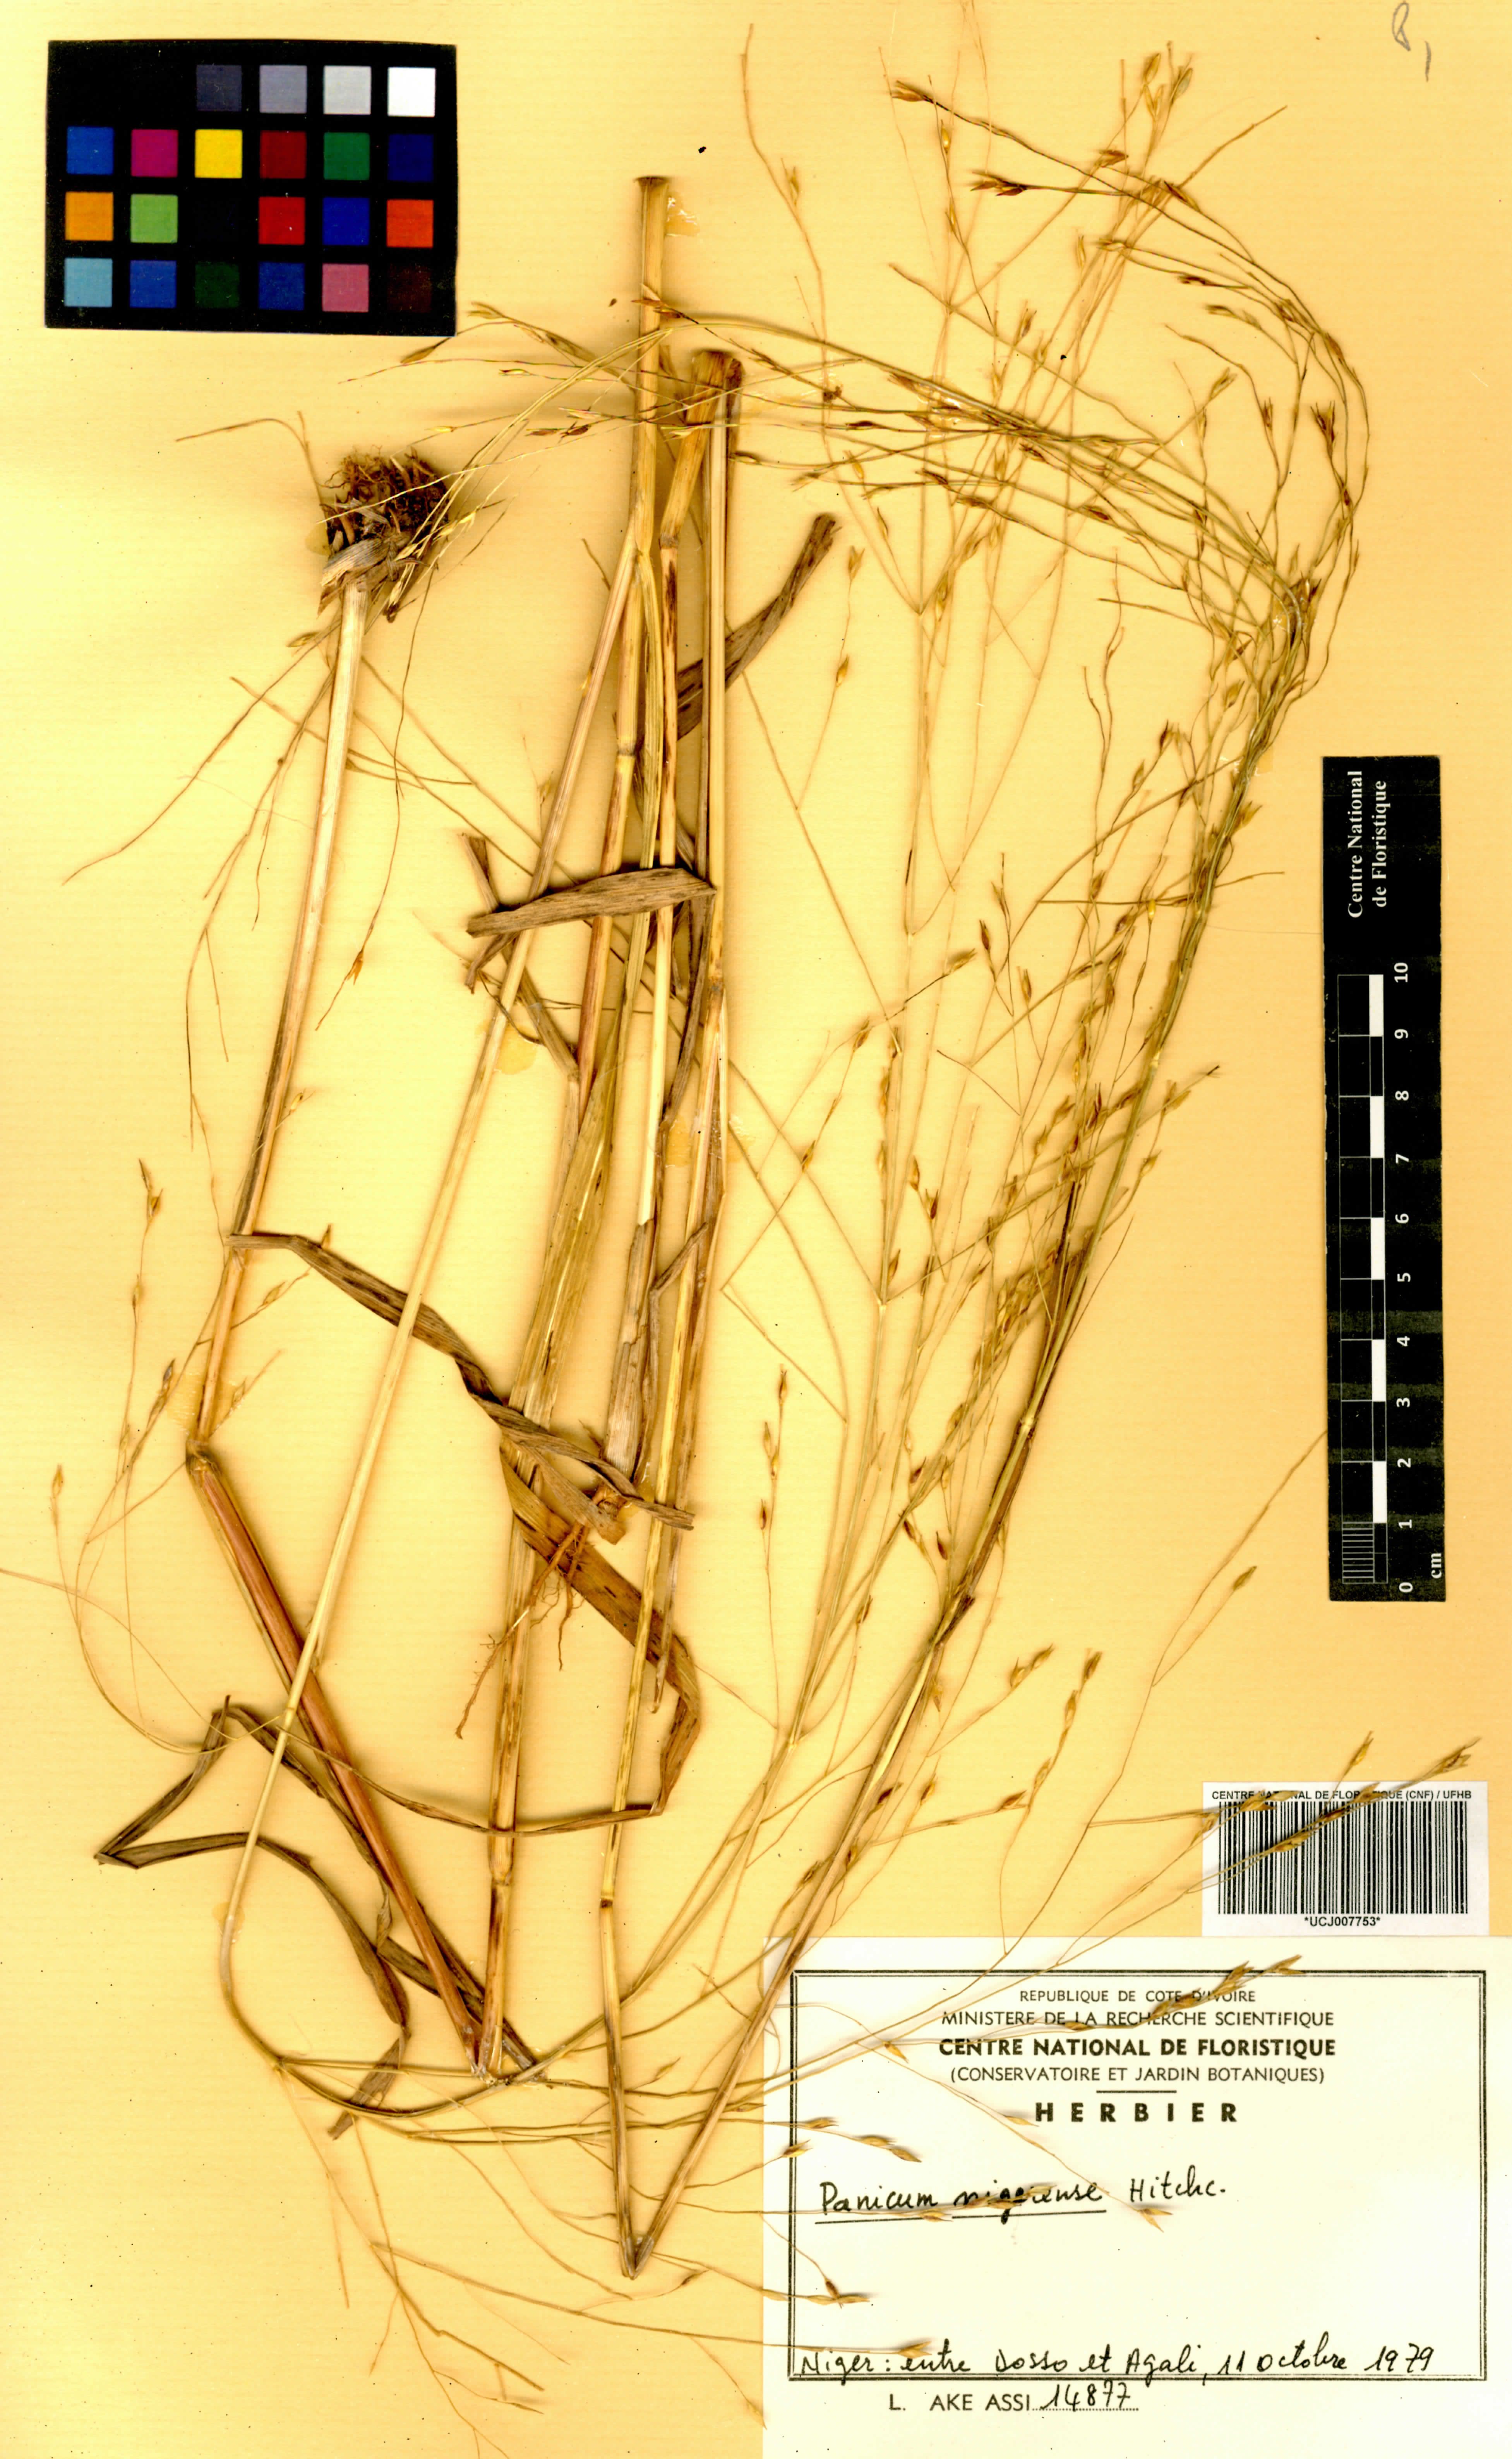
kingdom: Plantae
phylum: Tracheophyta
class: Liliopsida
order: Poales
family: Poaceae
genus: Panicum
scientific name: Panicum nigerense
